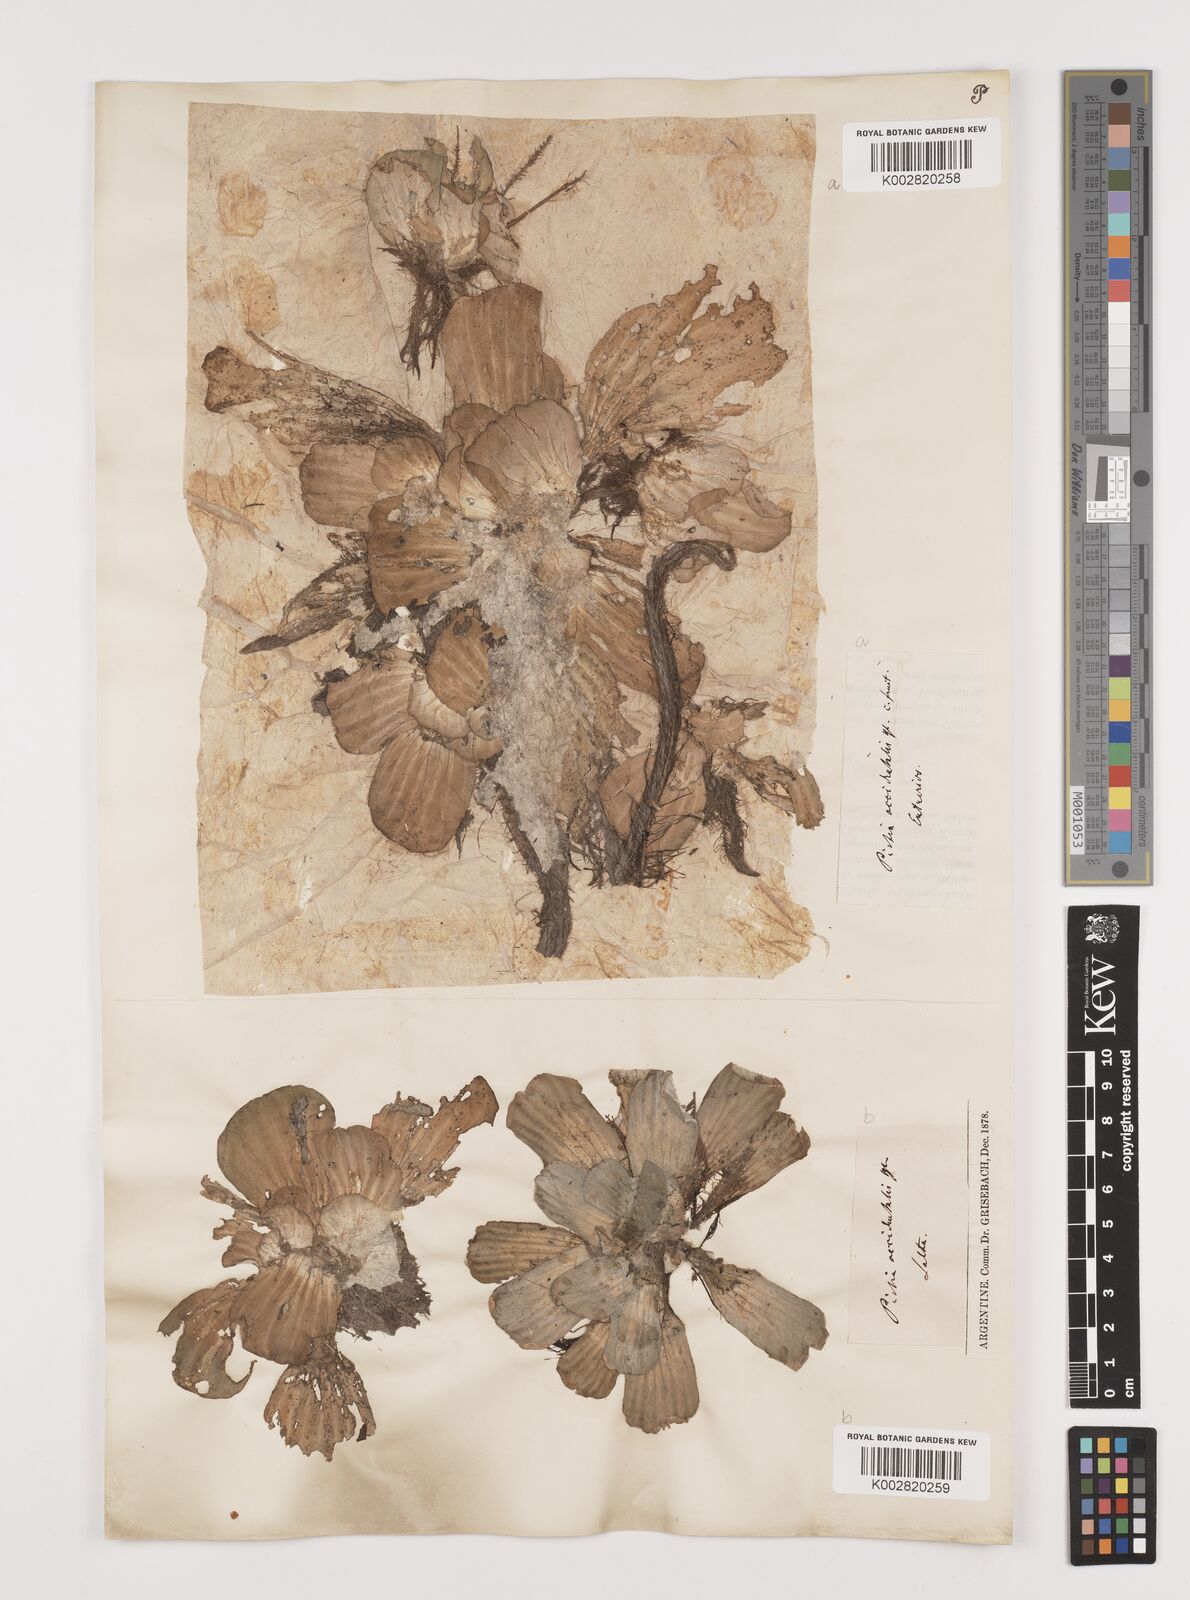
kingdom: Plantae
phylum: Tracheophyta
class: Liliopsida
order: Alismatales
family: Araceae
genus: Pistia
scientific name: Pistia stratiotes
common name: Water lettuce
